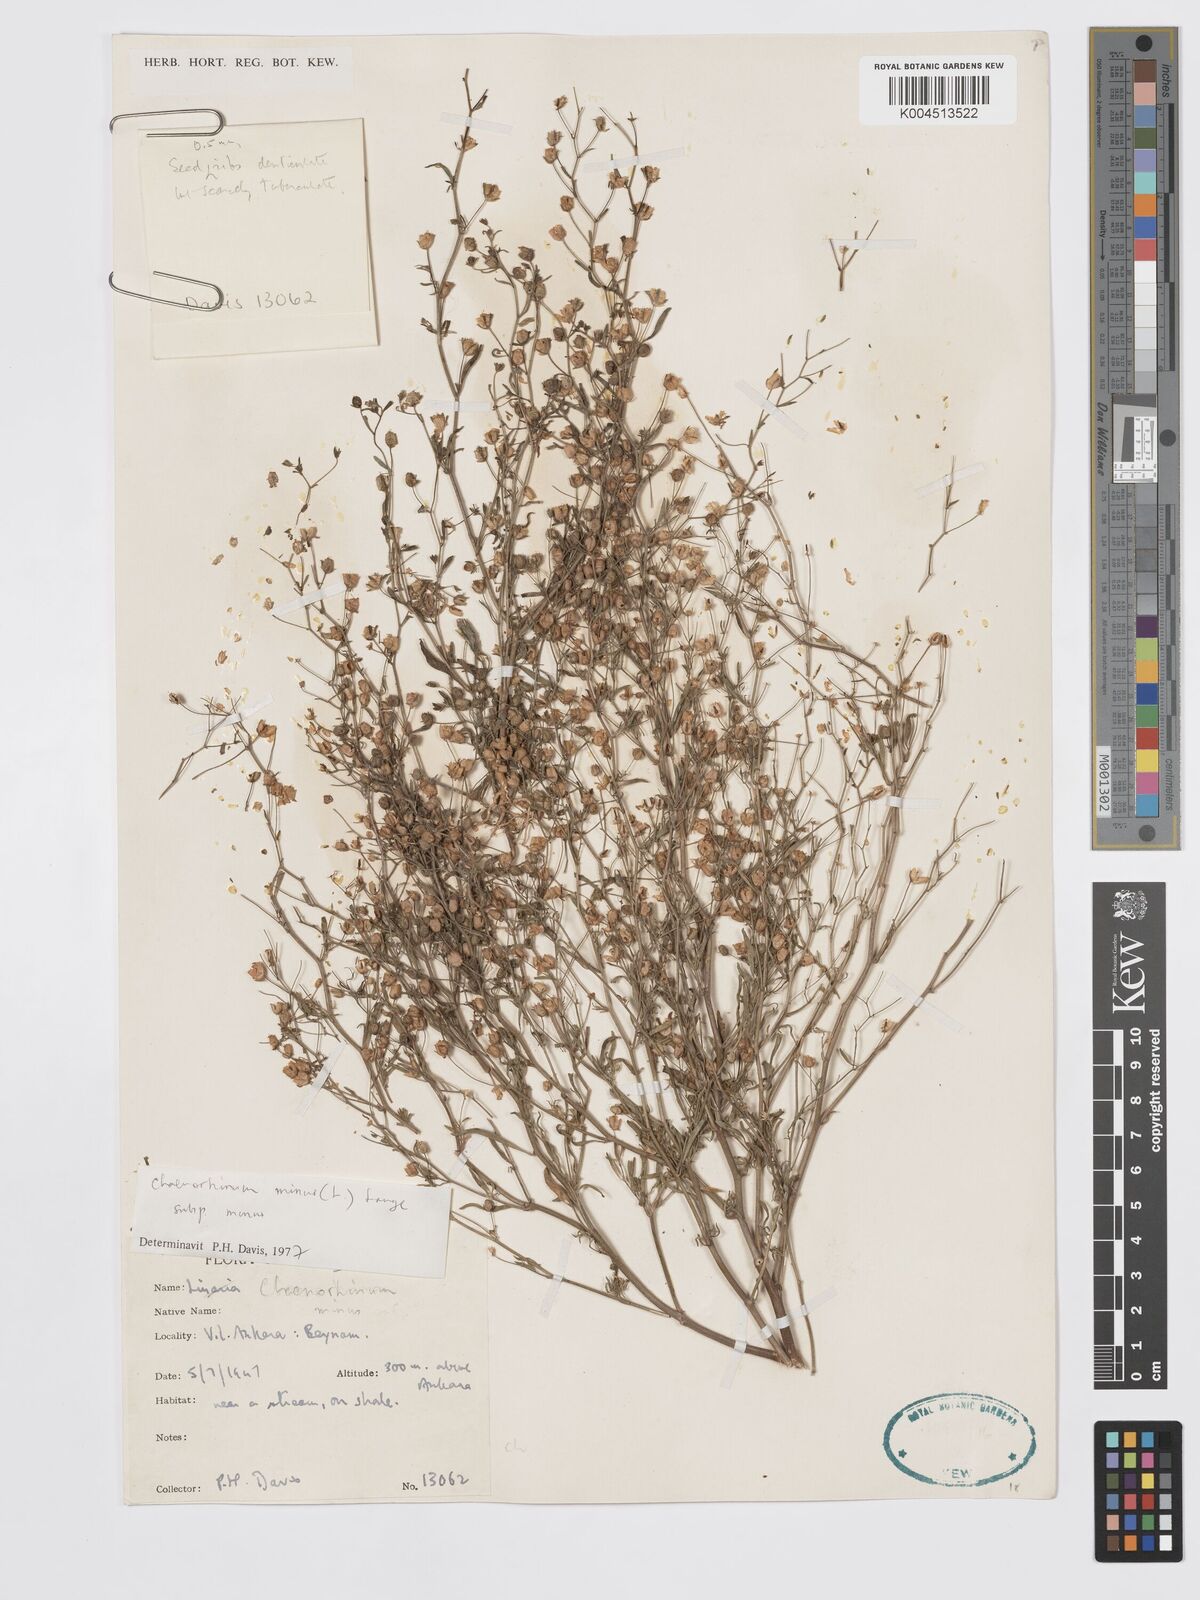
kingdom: Plantae
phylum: Tracheophyta
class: Magnoliopsida
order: Lamiales
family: Plantaginaceae
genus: Chaenorhinum
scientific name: Chaenorhinum minus
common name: Dwarf snapdragon
